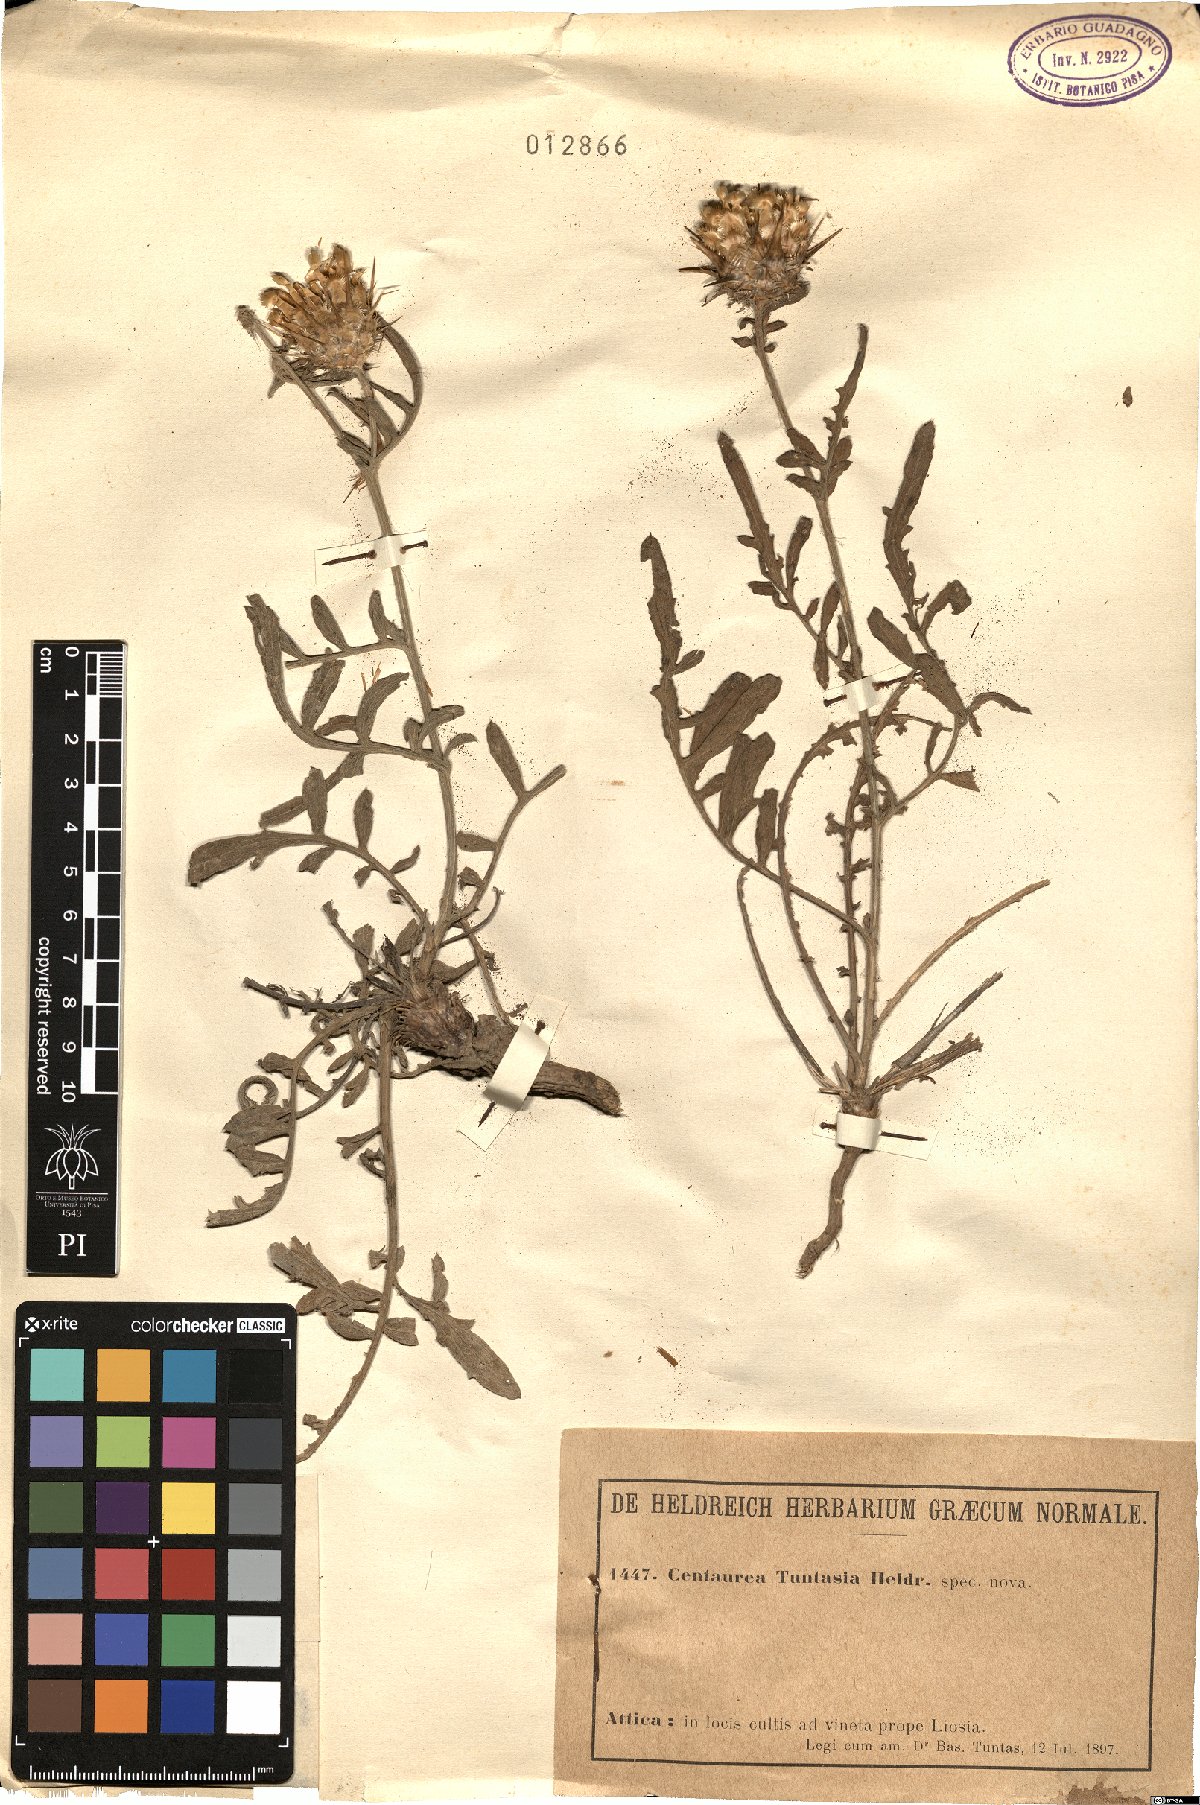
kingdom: Plantae
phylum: Tracheophyta
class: Magnoliopsida
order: Asterales
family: Asteraceae
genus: Centaurea
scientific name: Centaurea tuntasia
